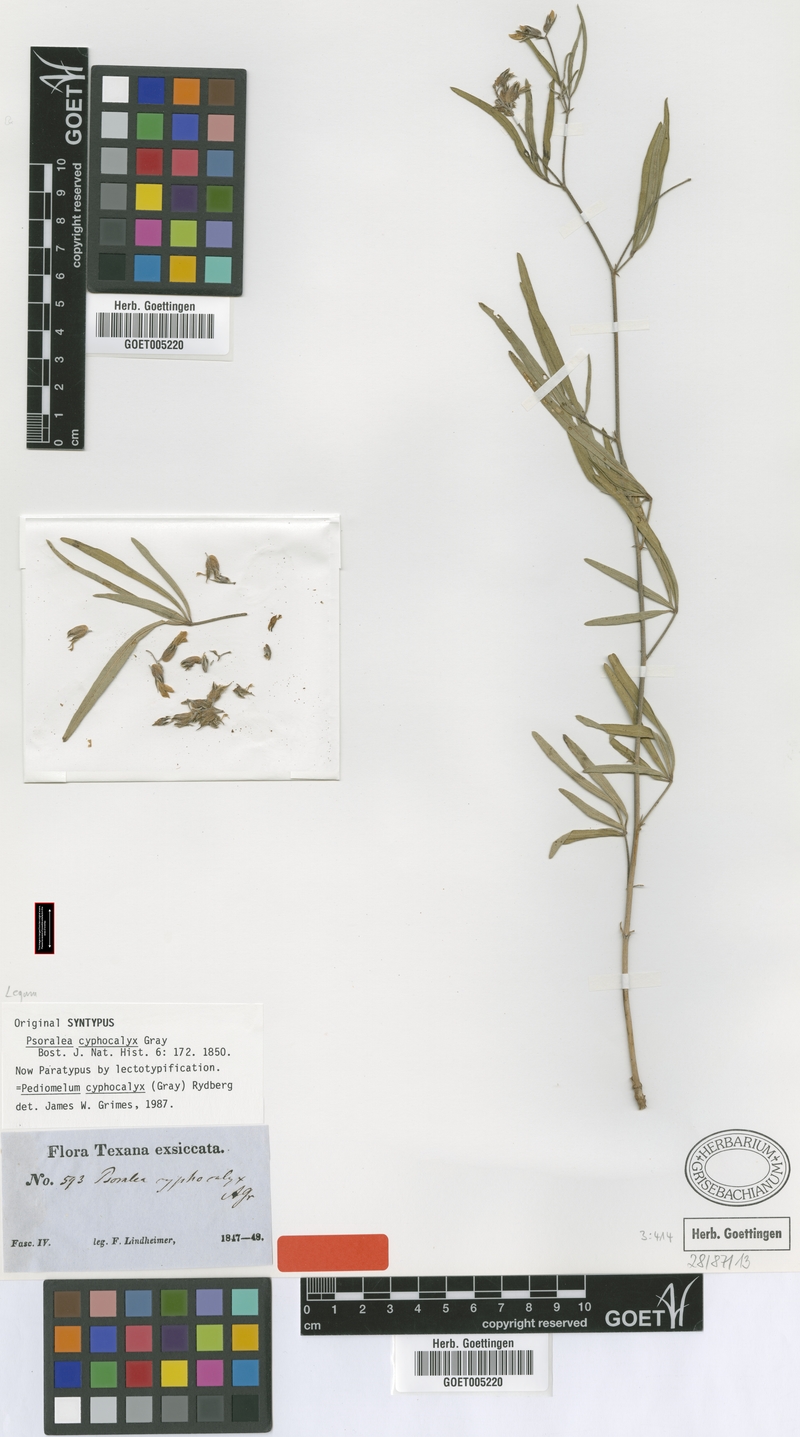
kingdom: Plantae
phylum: Tracheophyta
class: Magnoliopsida
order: Fabales
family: Fabaceae
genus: Pediomelum
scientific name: Pediomelum cyphocalyx
